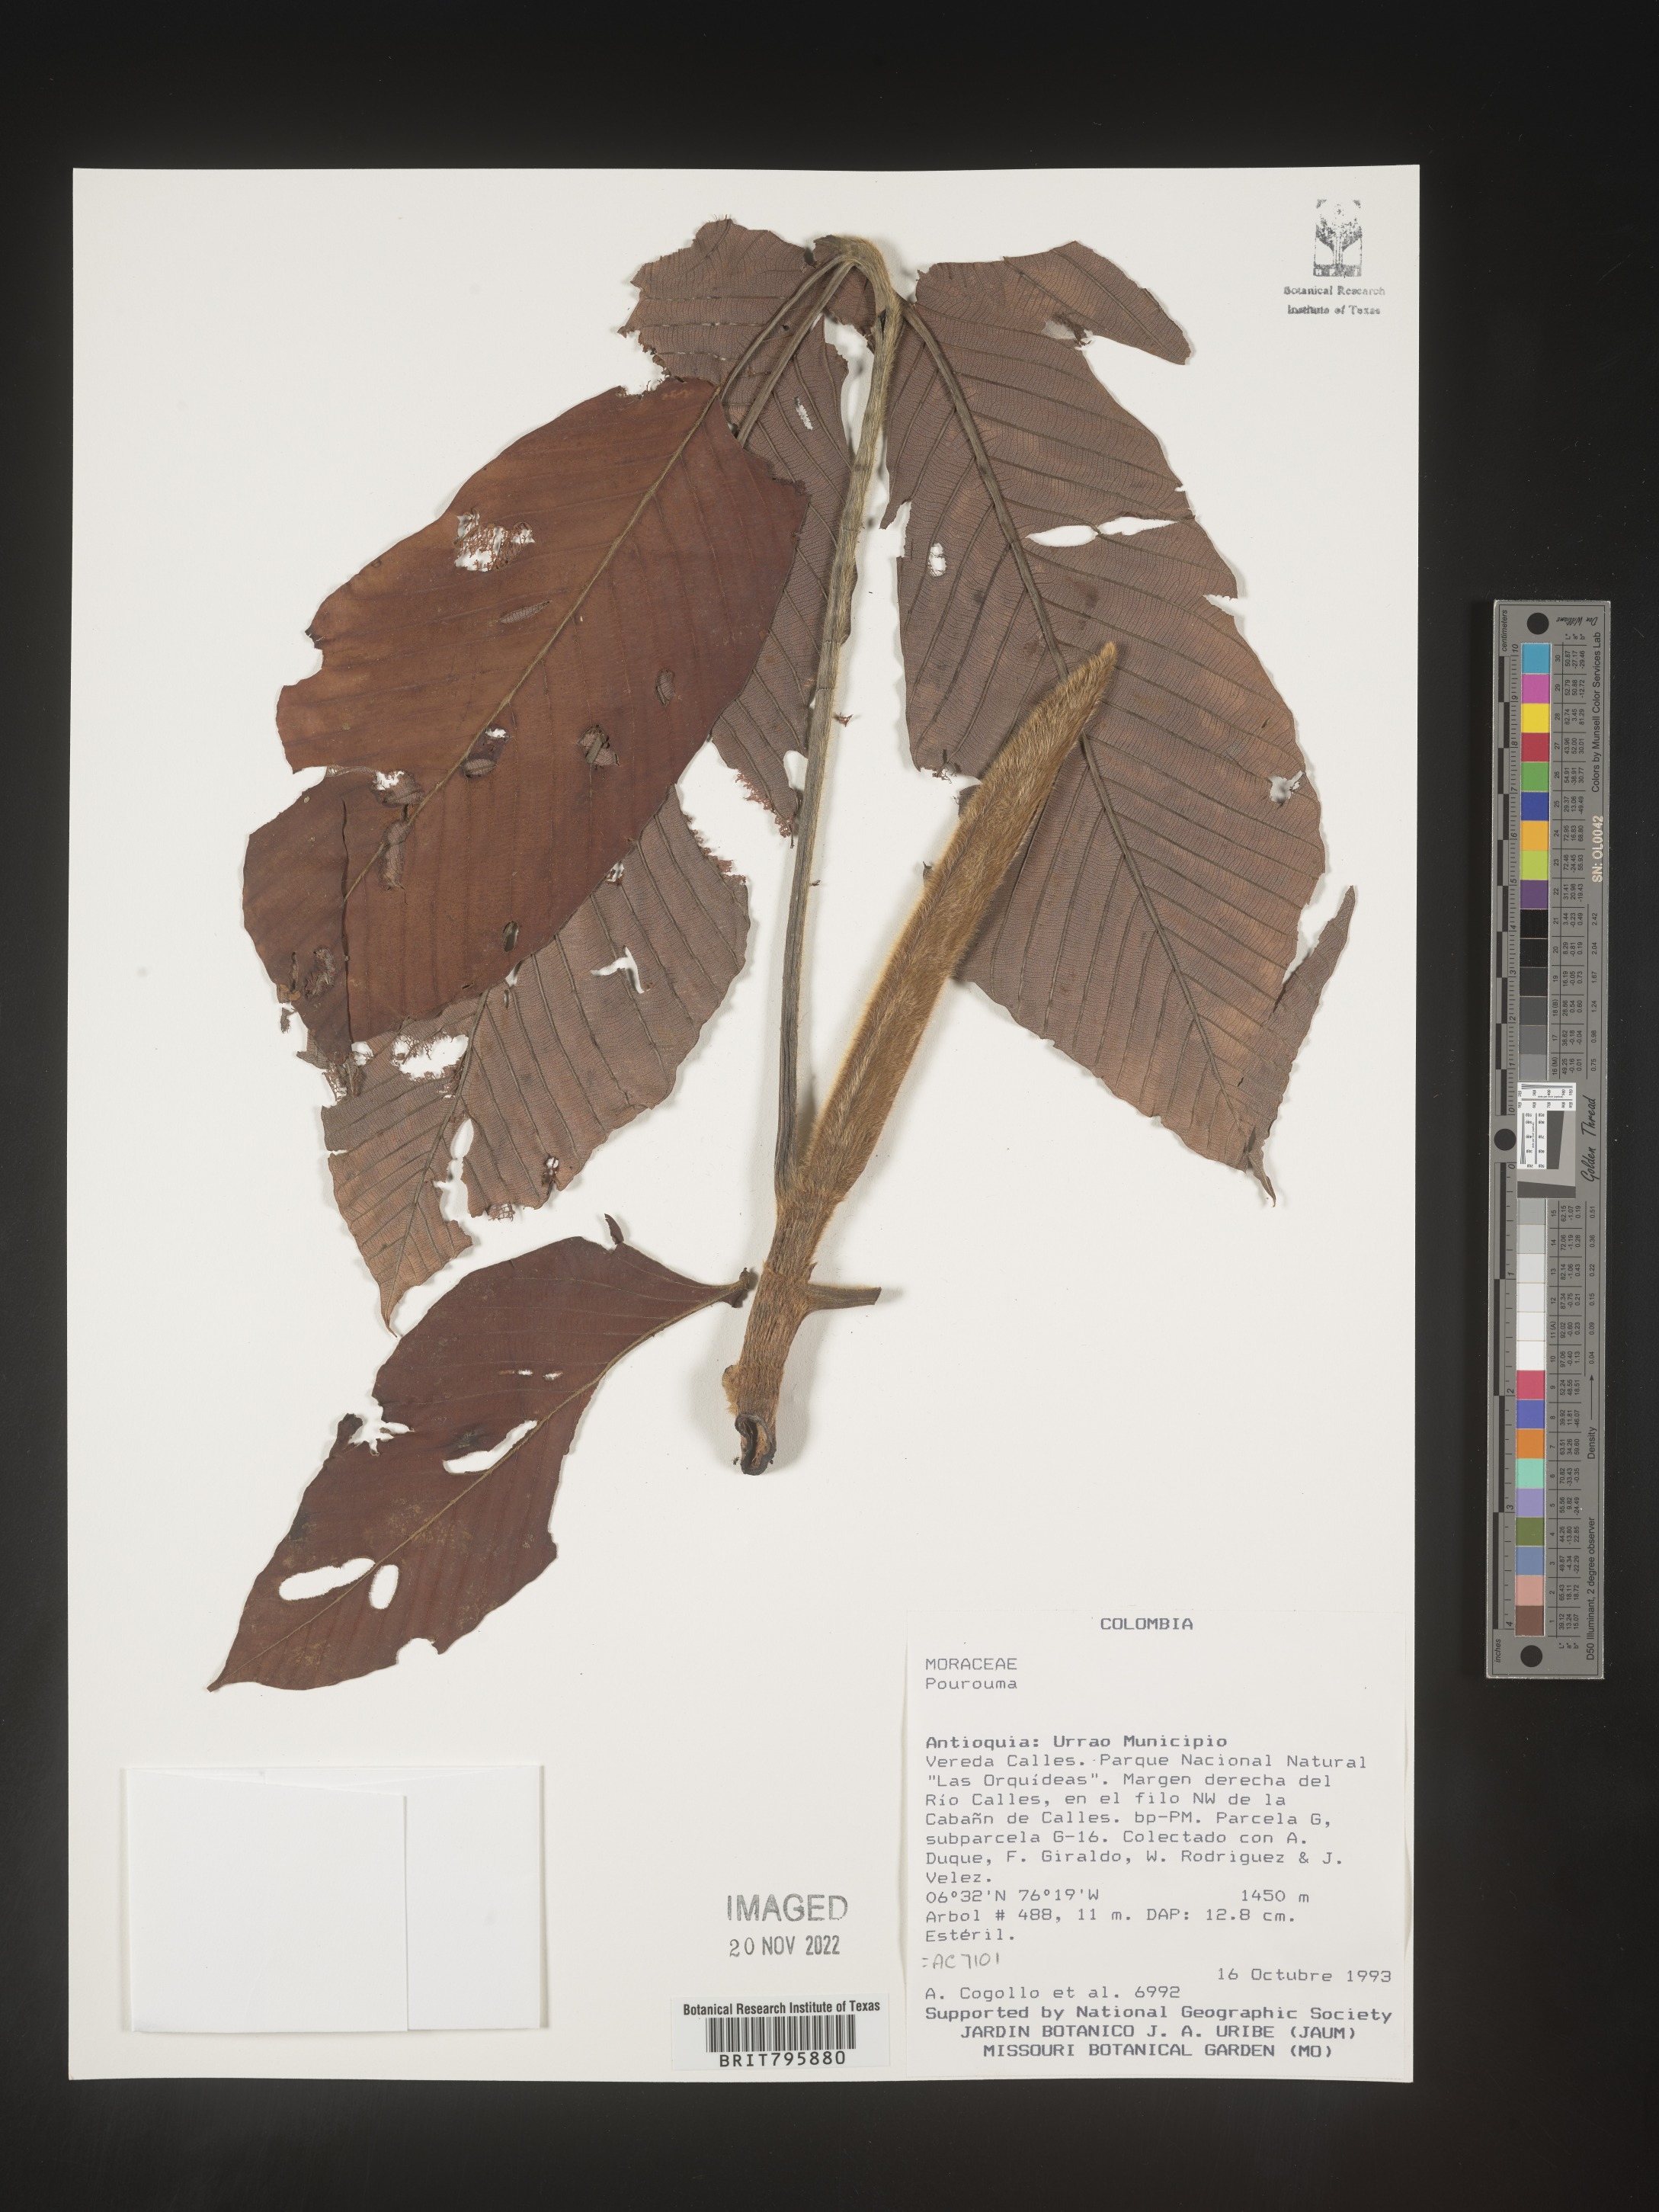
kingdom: Plantae
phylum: Tracheophyta
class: Magnoliopsida
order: Rosales
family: Urticaceae
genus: Pourouma
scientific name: Pourouma
